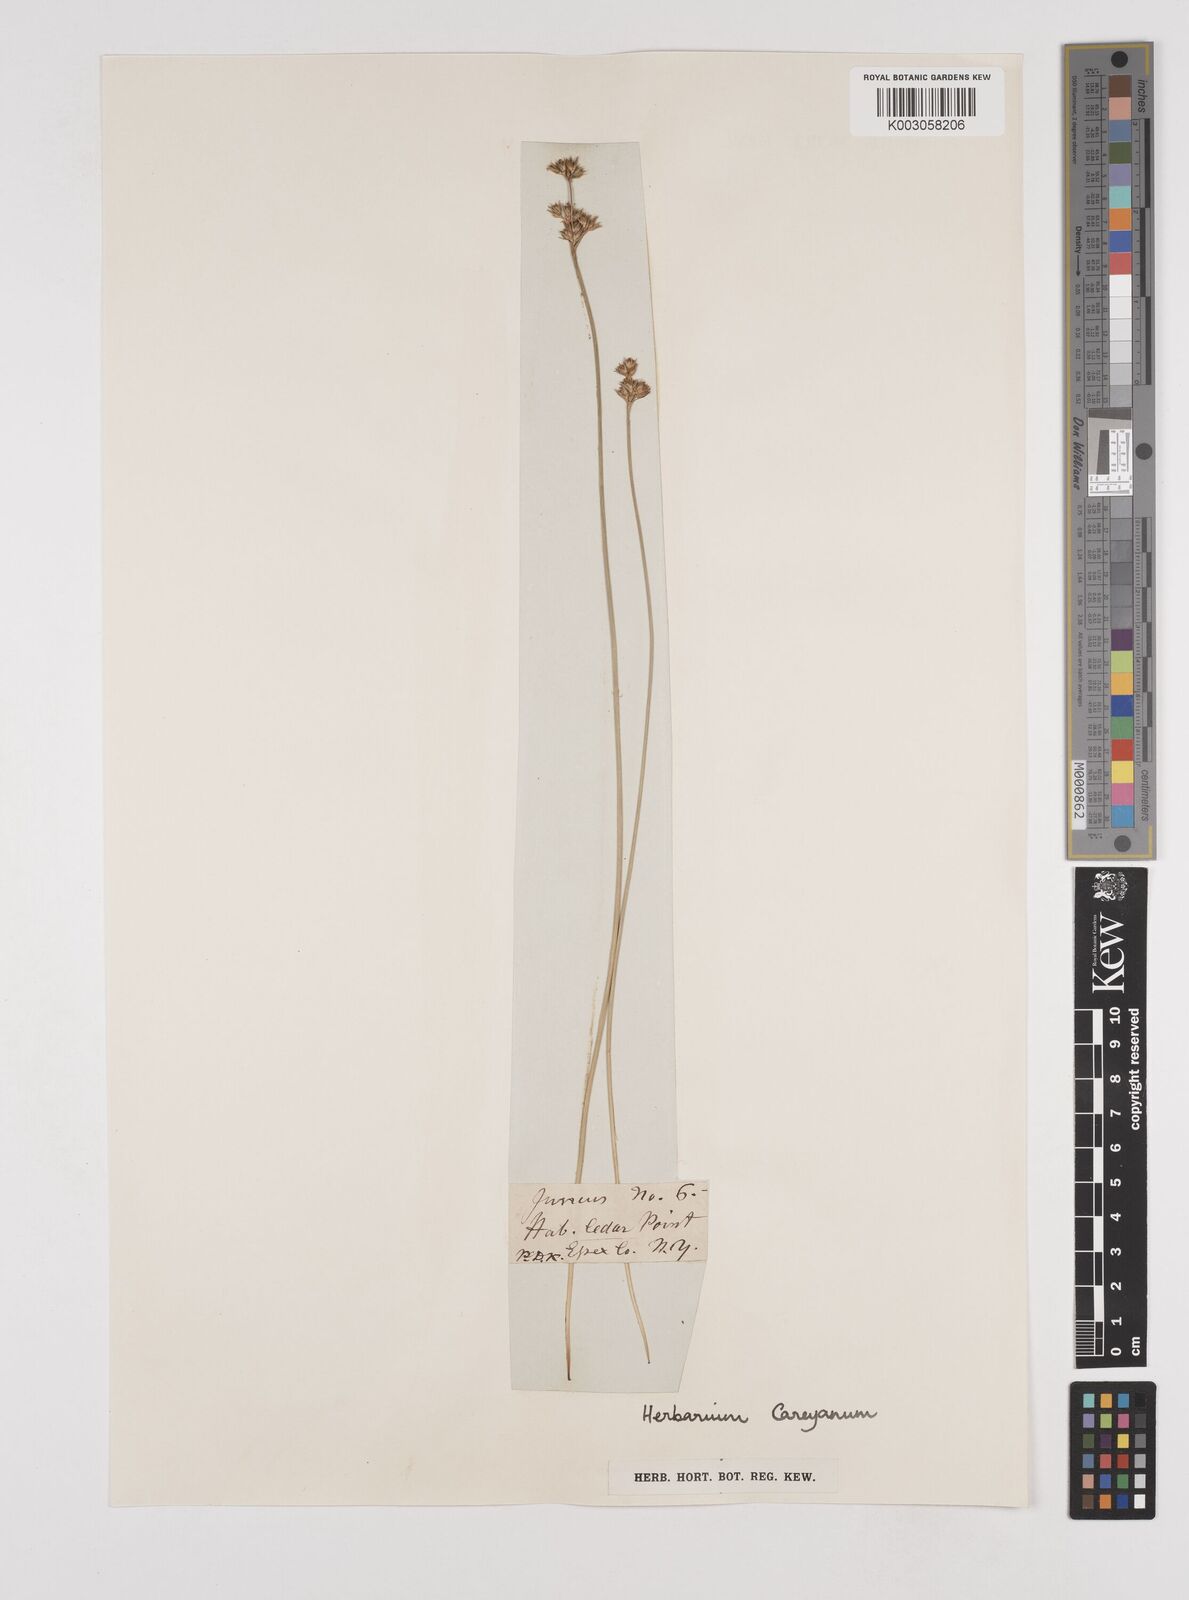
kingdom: Plantae
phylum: Tracheophyta
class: Liliopsida
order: Poales
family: Juncaceae
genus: Juncus
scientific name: Juncus
